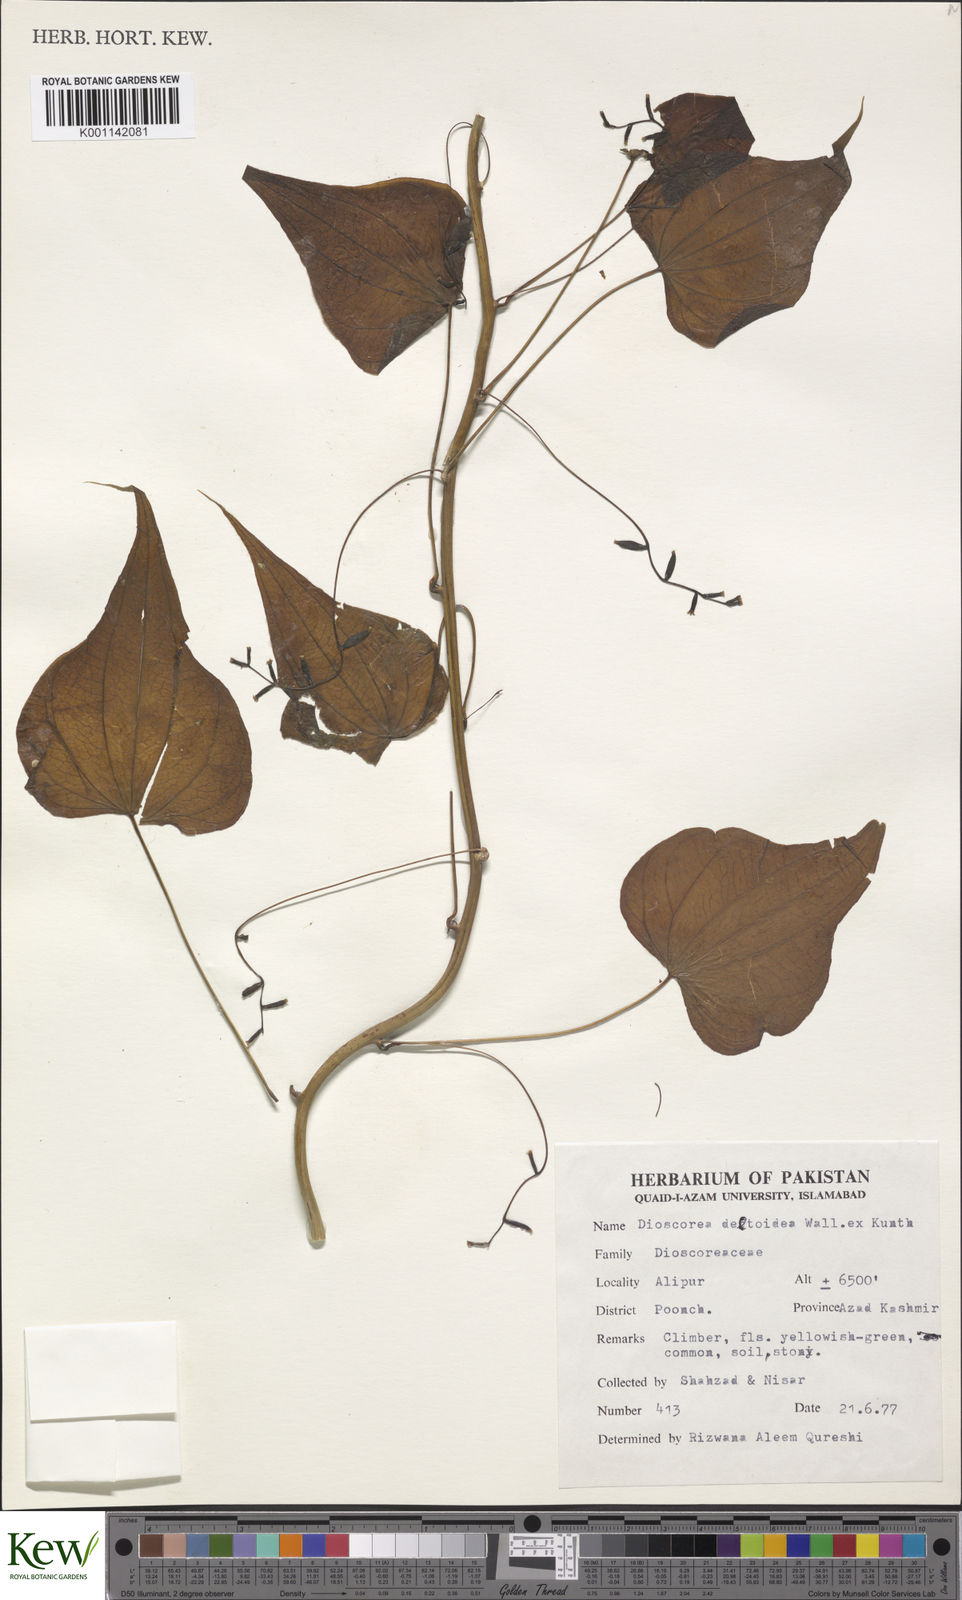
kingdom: Plantae
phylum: Tracheophyta
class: Liliopsida
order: Dioscoreales
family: Dioscoreaceae
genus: Dioscorea
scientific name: Dioscorea deltoidea
